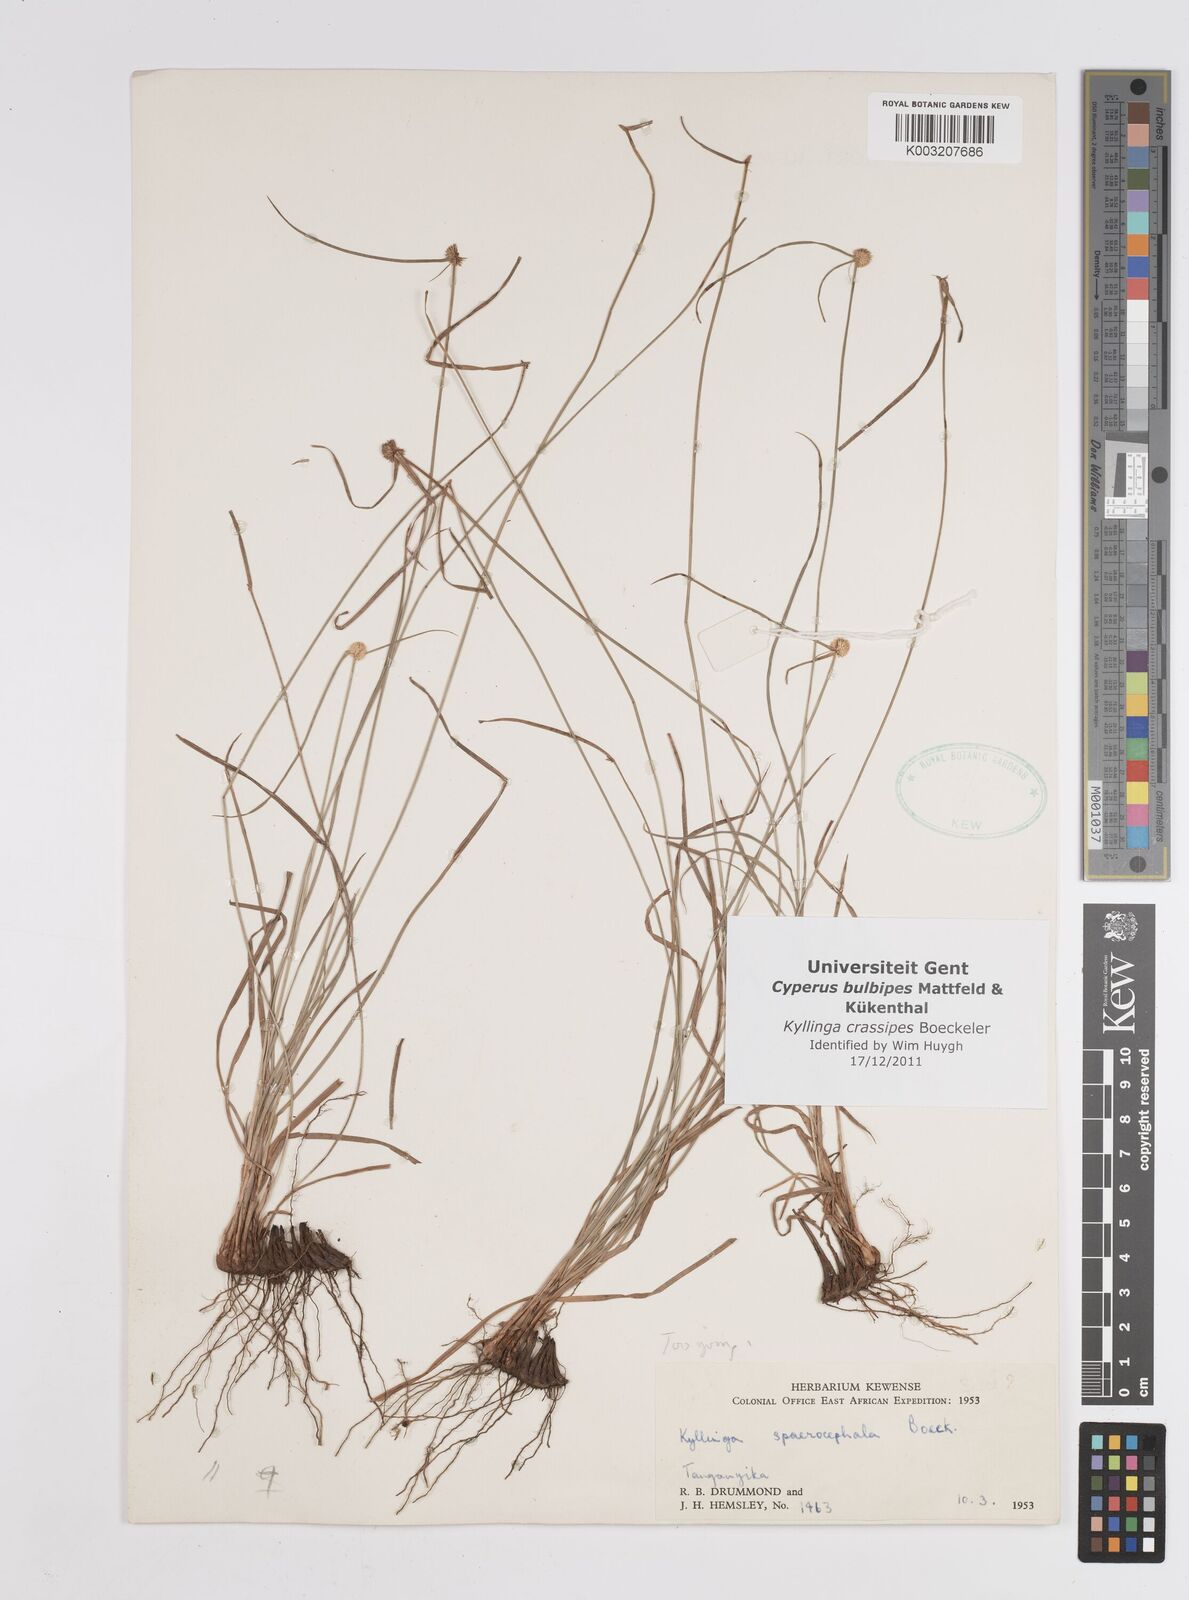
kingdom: Plantae
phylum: Tracheophyta
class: Liliopsida
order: Poales
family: Cyperaceae
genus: Cyperus
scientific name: Cyperus crassipes
